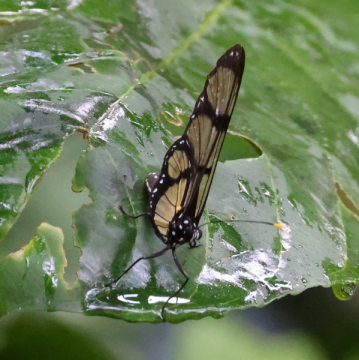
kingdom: Animalia
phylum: Arthropoda
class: Insecta
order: Lepidoptera
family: Nymphalidae
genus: Methona
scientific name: Methona confusa
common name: Confusa Tigerwing
